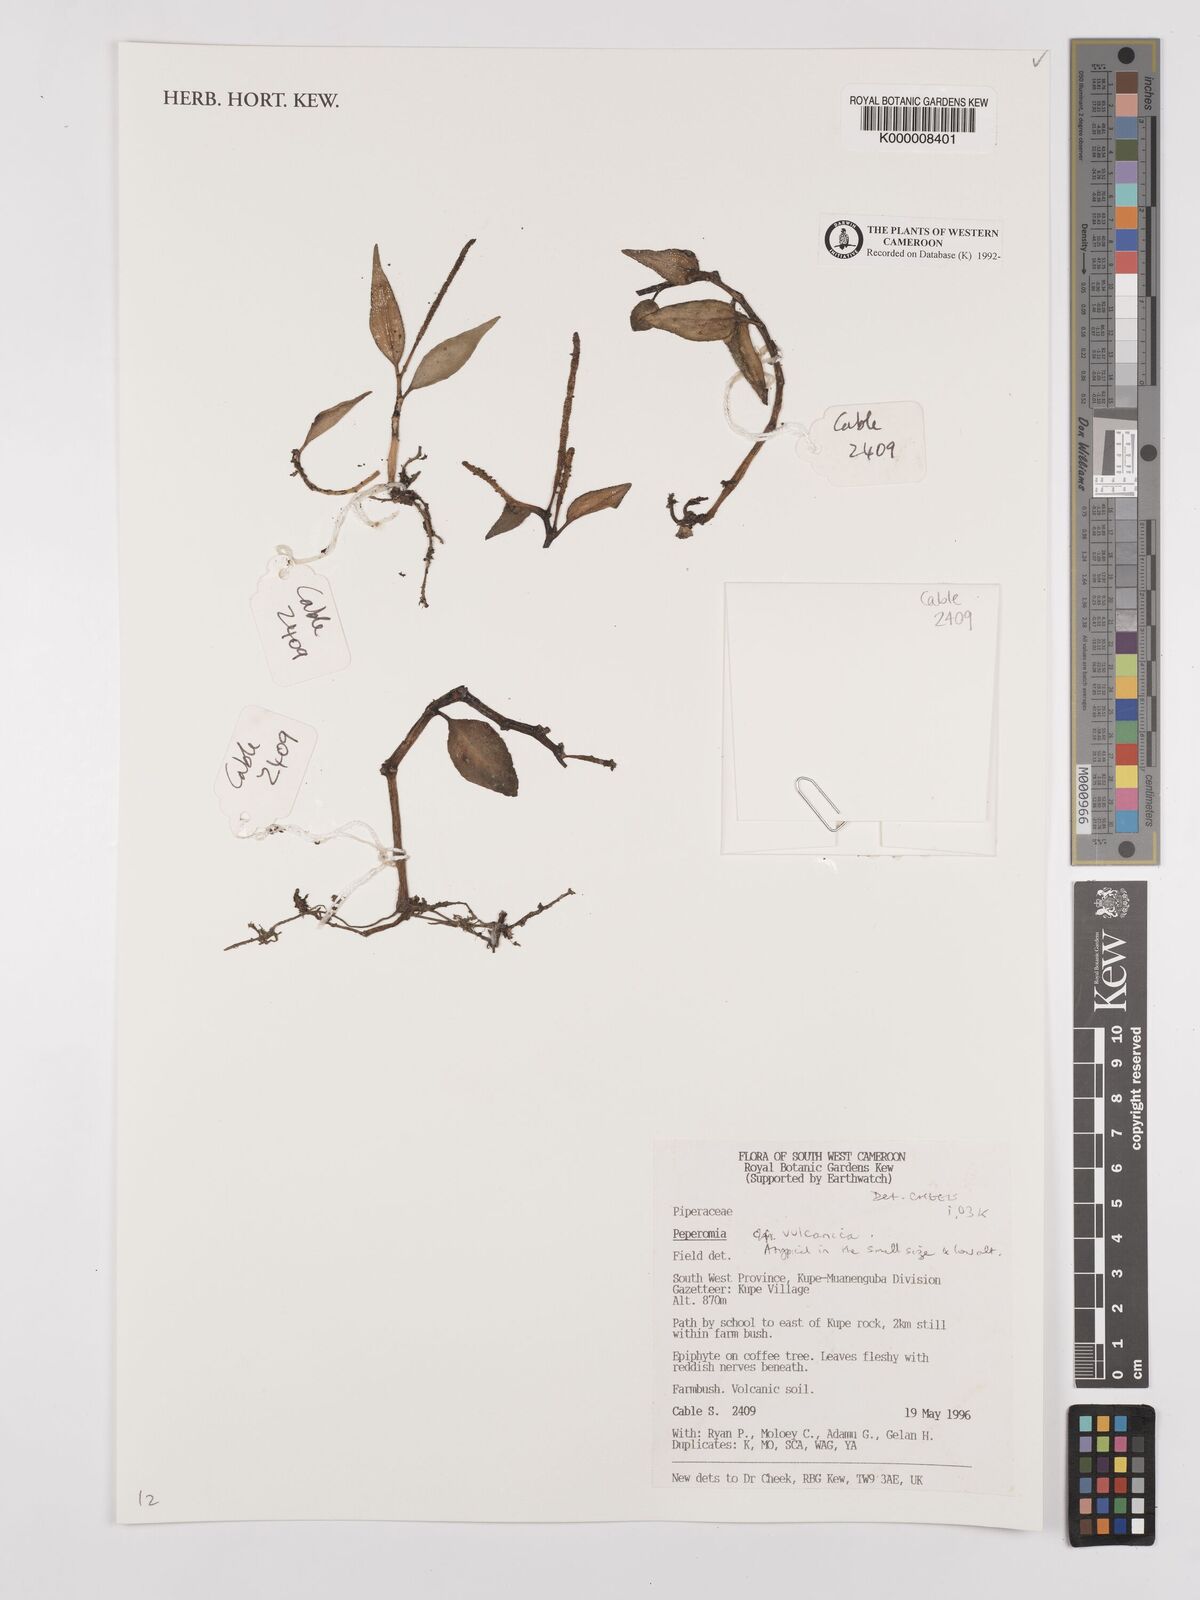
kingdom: Plantae
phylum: Tracheophyta
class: Magnoliopsida
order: Piperales
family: Piperaceae
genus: Peperomia
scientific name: Peperomia vulcanica
